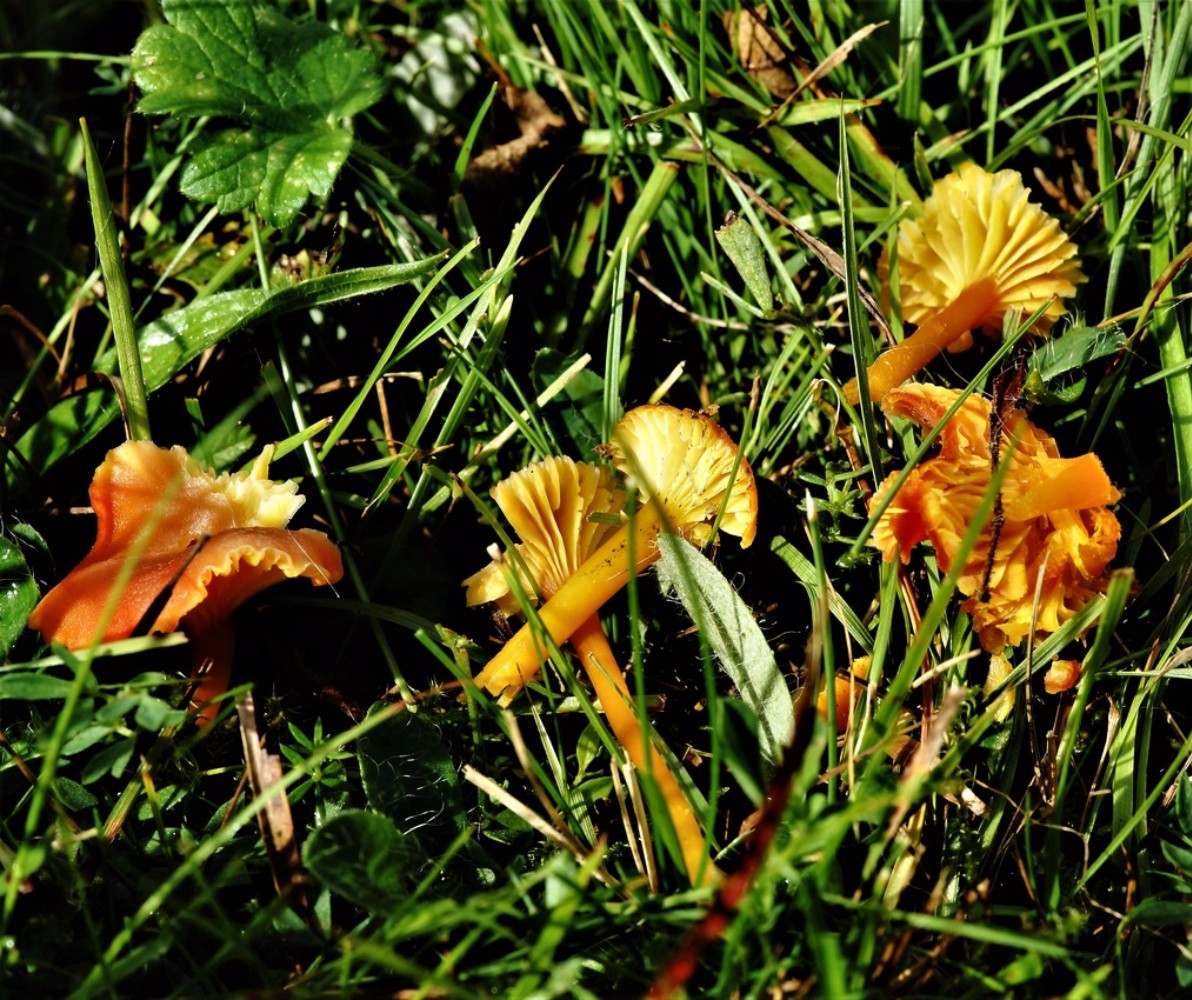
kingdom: Fungi
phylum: Basidiomycota
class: Agaricomycetes
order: Agaricales
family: Hygrophoraceae
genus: Gliophorus
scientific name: Gliophorus europerplexus
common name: Butterscotch waxcap
